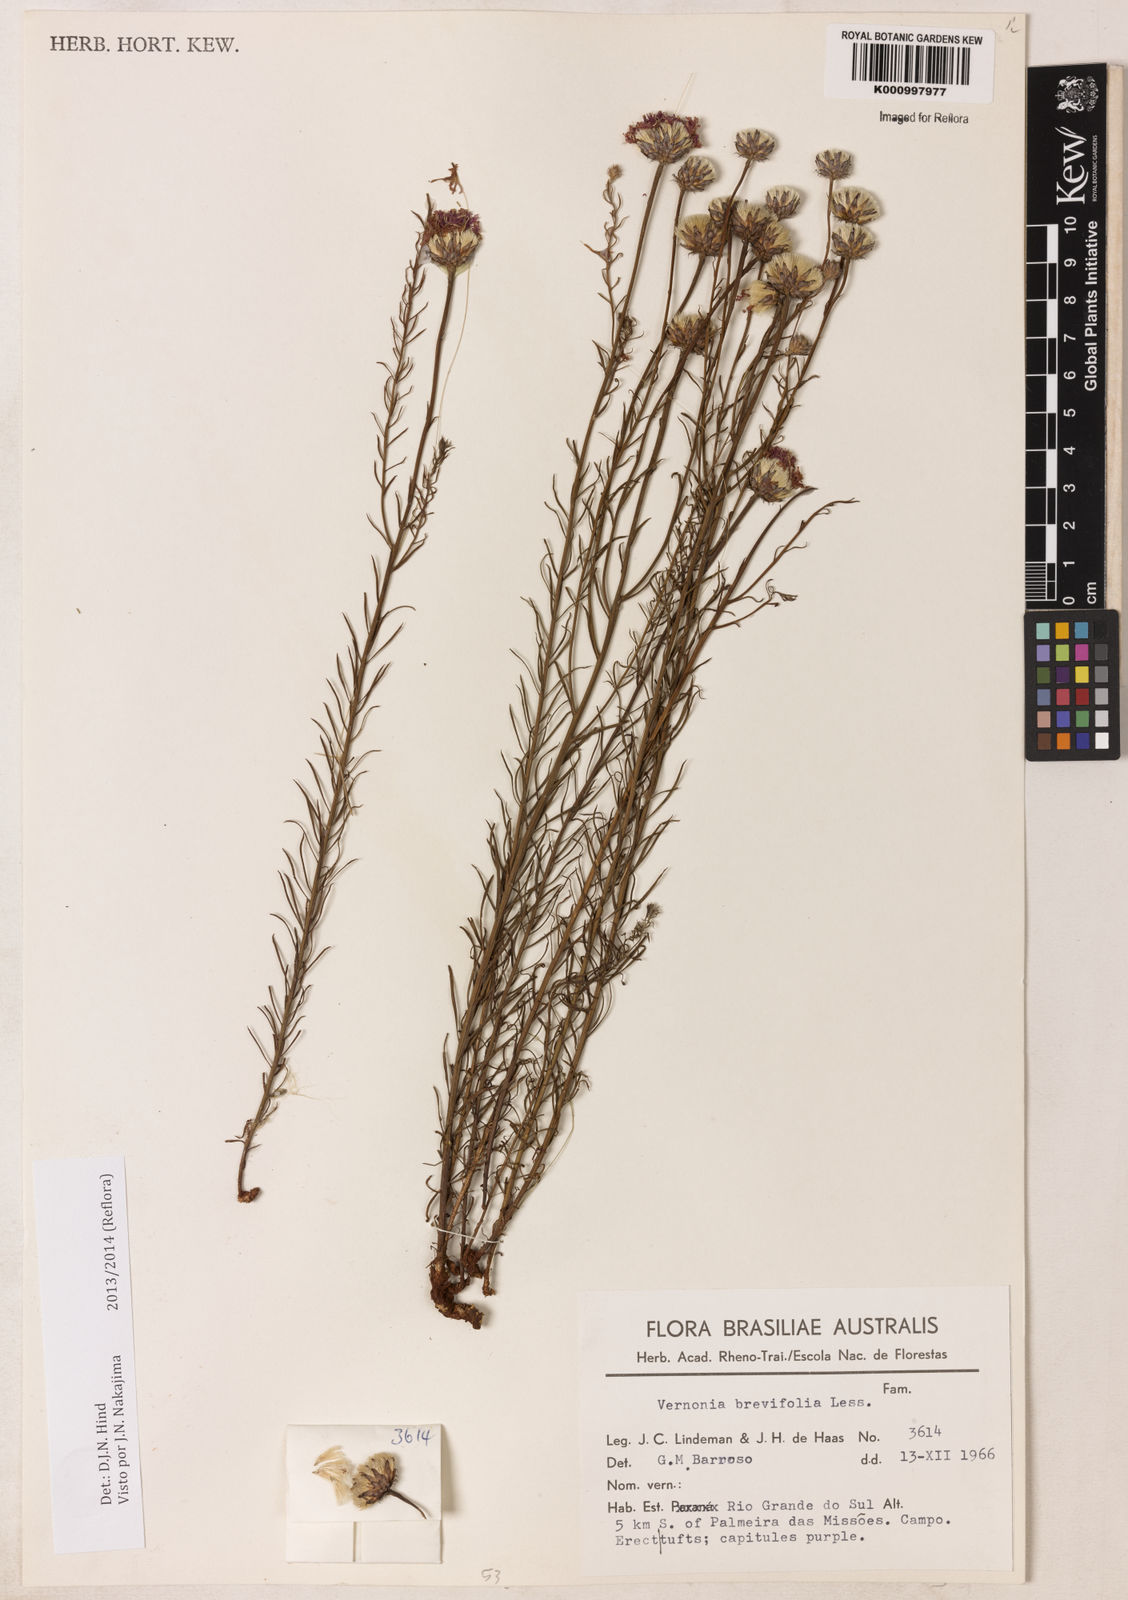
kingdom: Plantae
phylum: Tracheophyta
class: Magnoliopsida
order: Asterales
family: Asteraceae
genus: Lessingianthus
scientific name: Lessingianthus brevifolius
